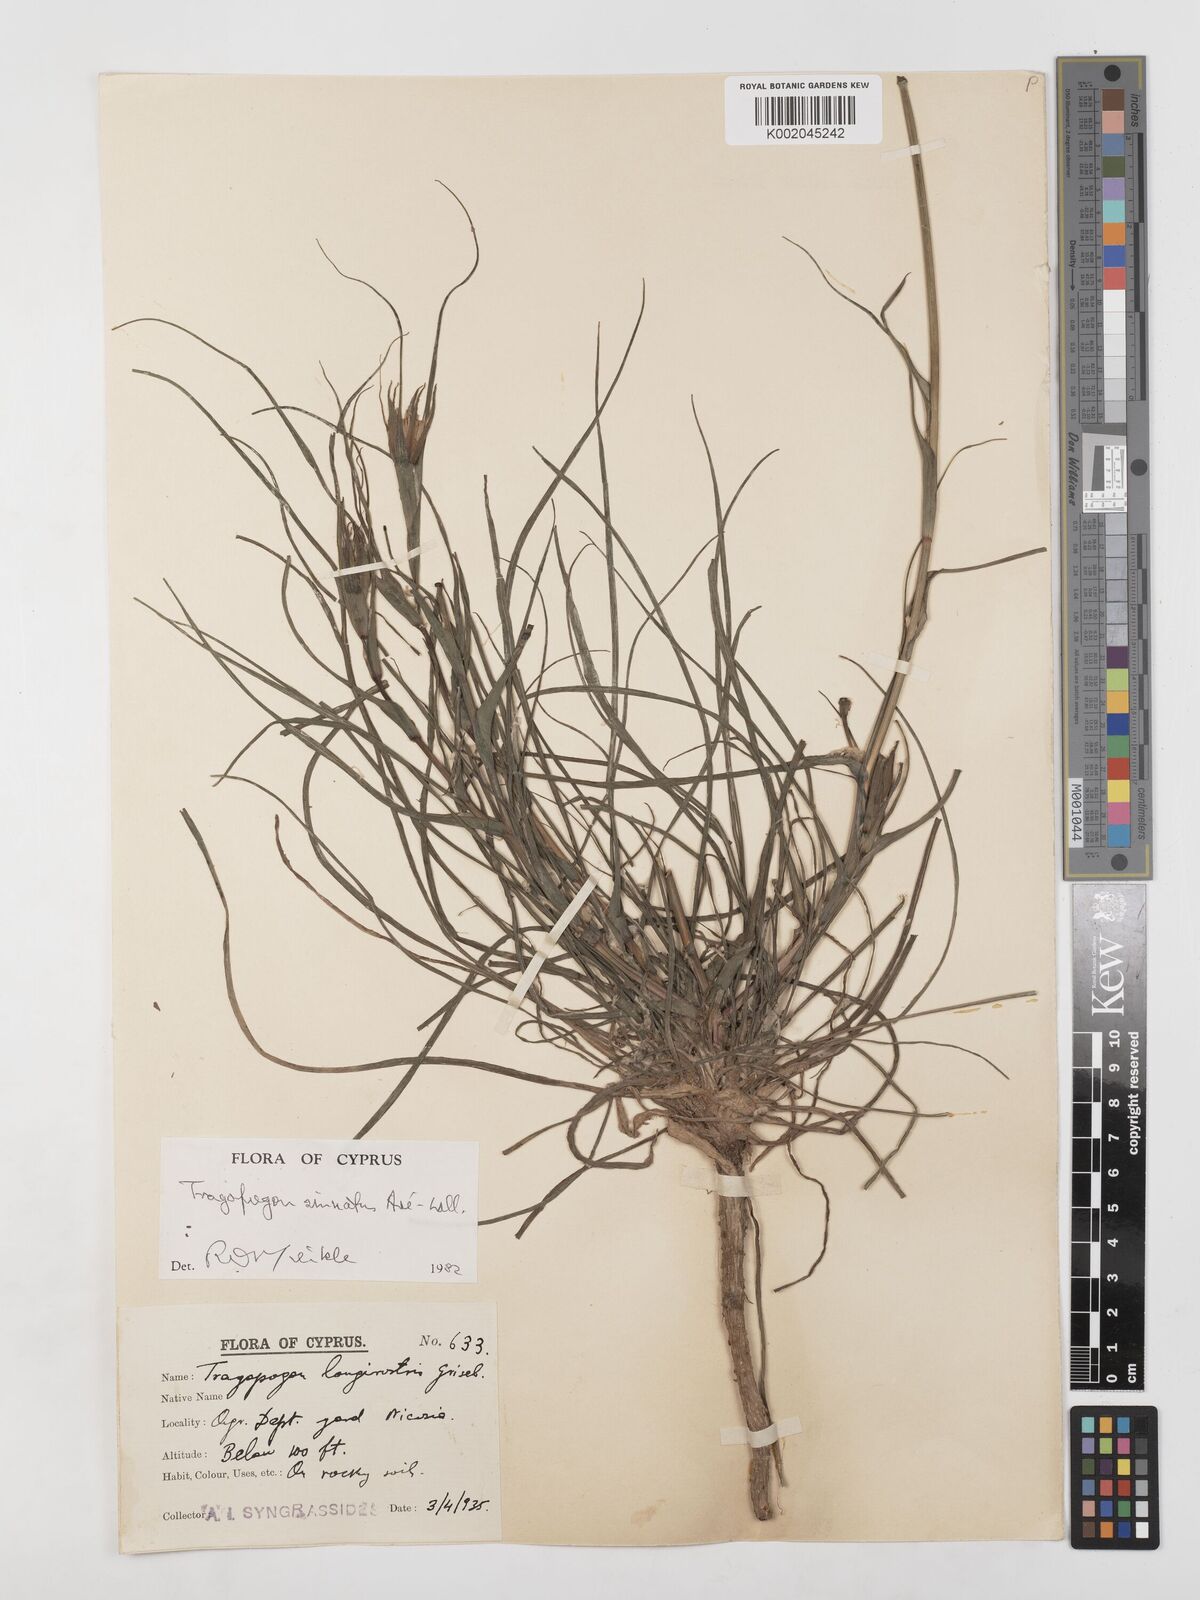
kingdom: Plantae
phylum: Tracheophyta
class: Magnoliopsida
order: Asterales
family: Asteraceae
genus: Tragopogon
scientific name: Tragopogon porrifolius
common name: Salsify
